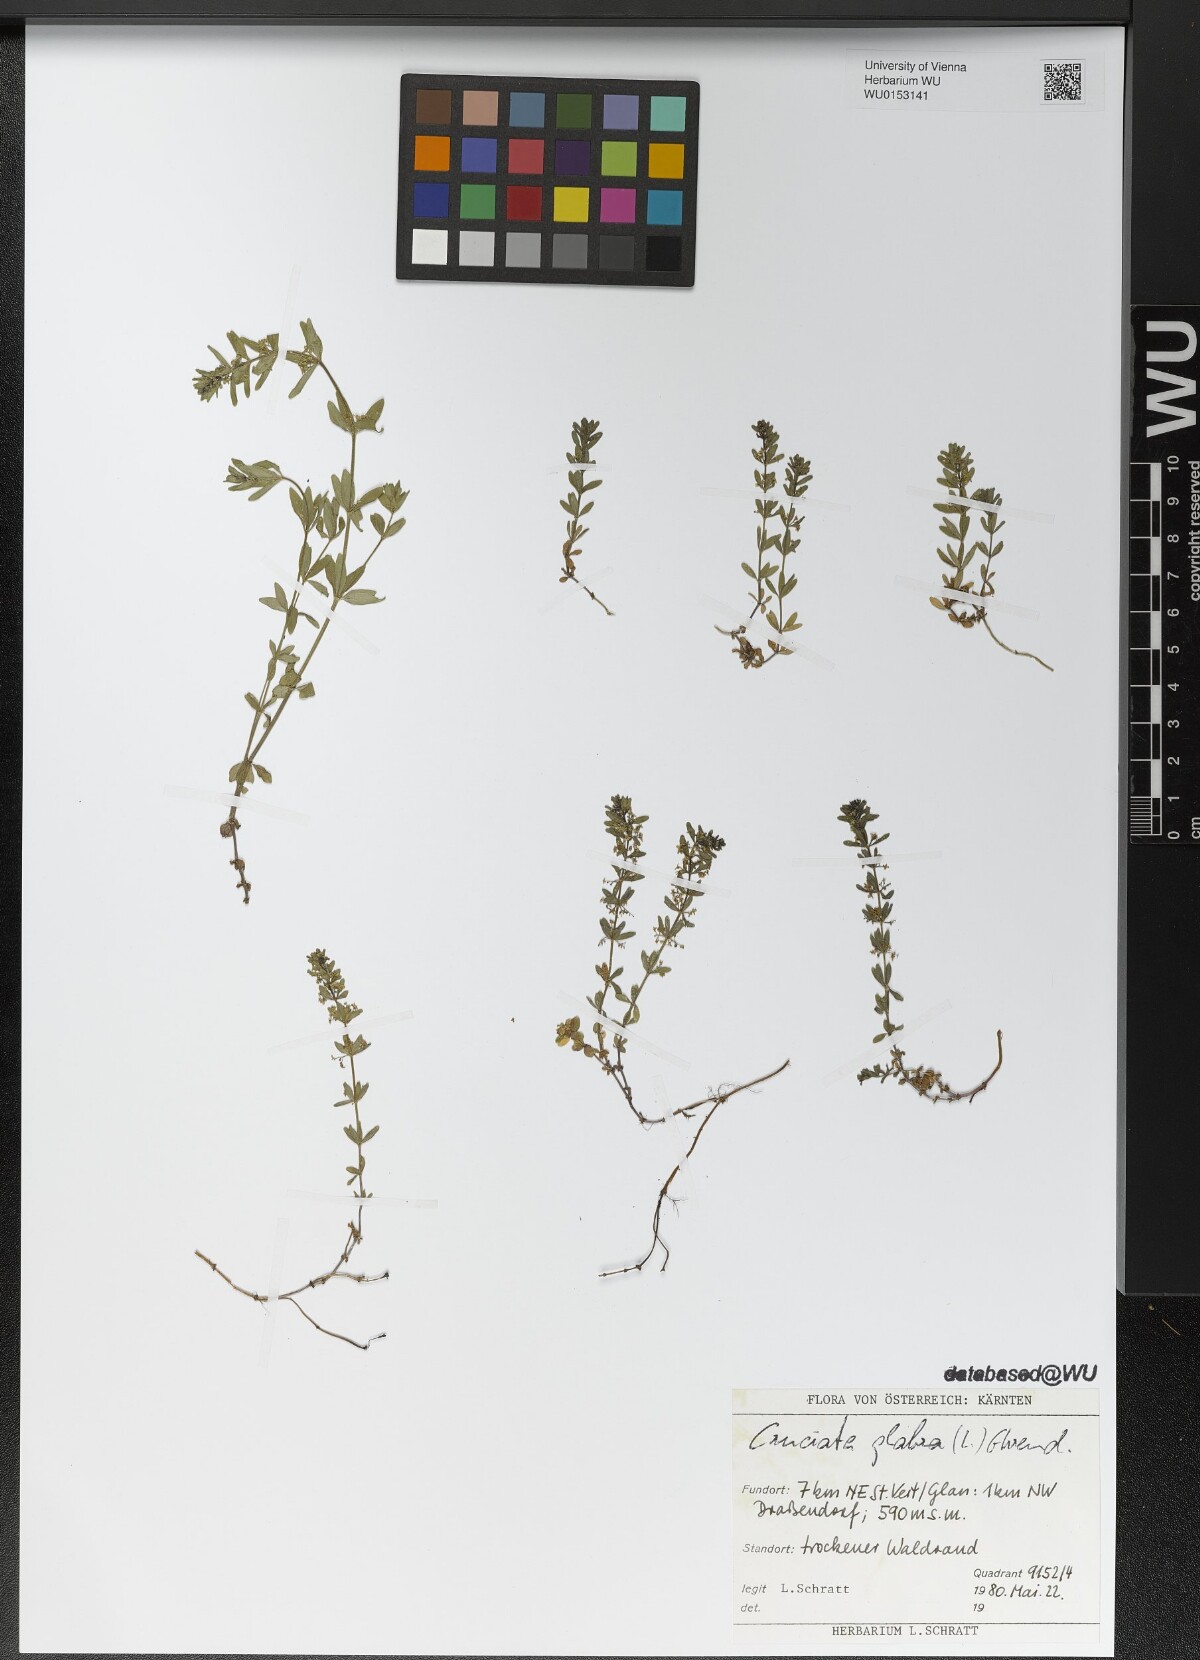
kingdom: Plantae
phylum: Tracheophyta
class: Magnoliopsida
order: Gentianales
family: Rubiaceae
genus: Cruciata
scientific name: Cruciata glabra
